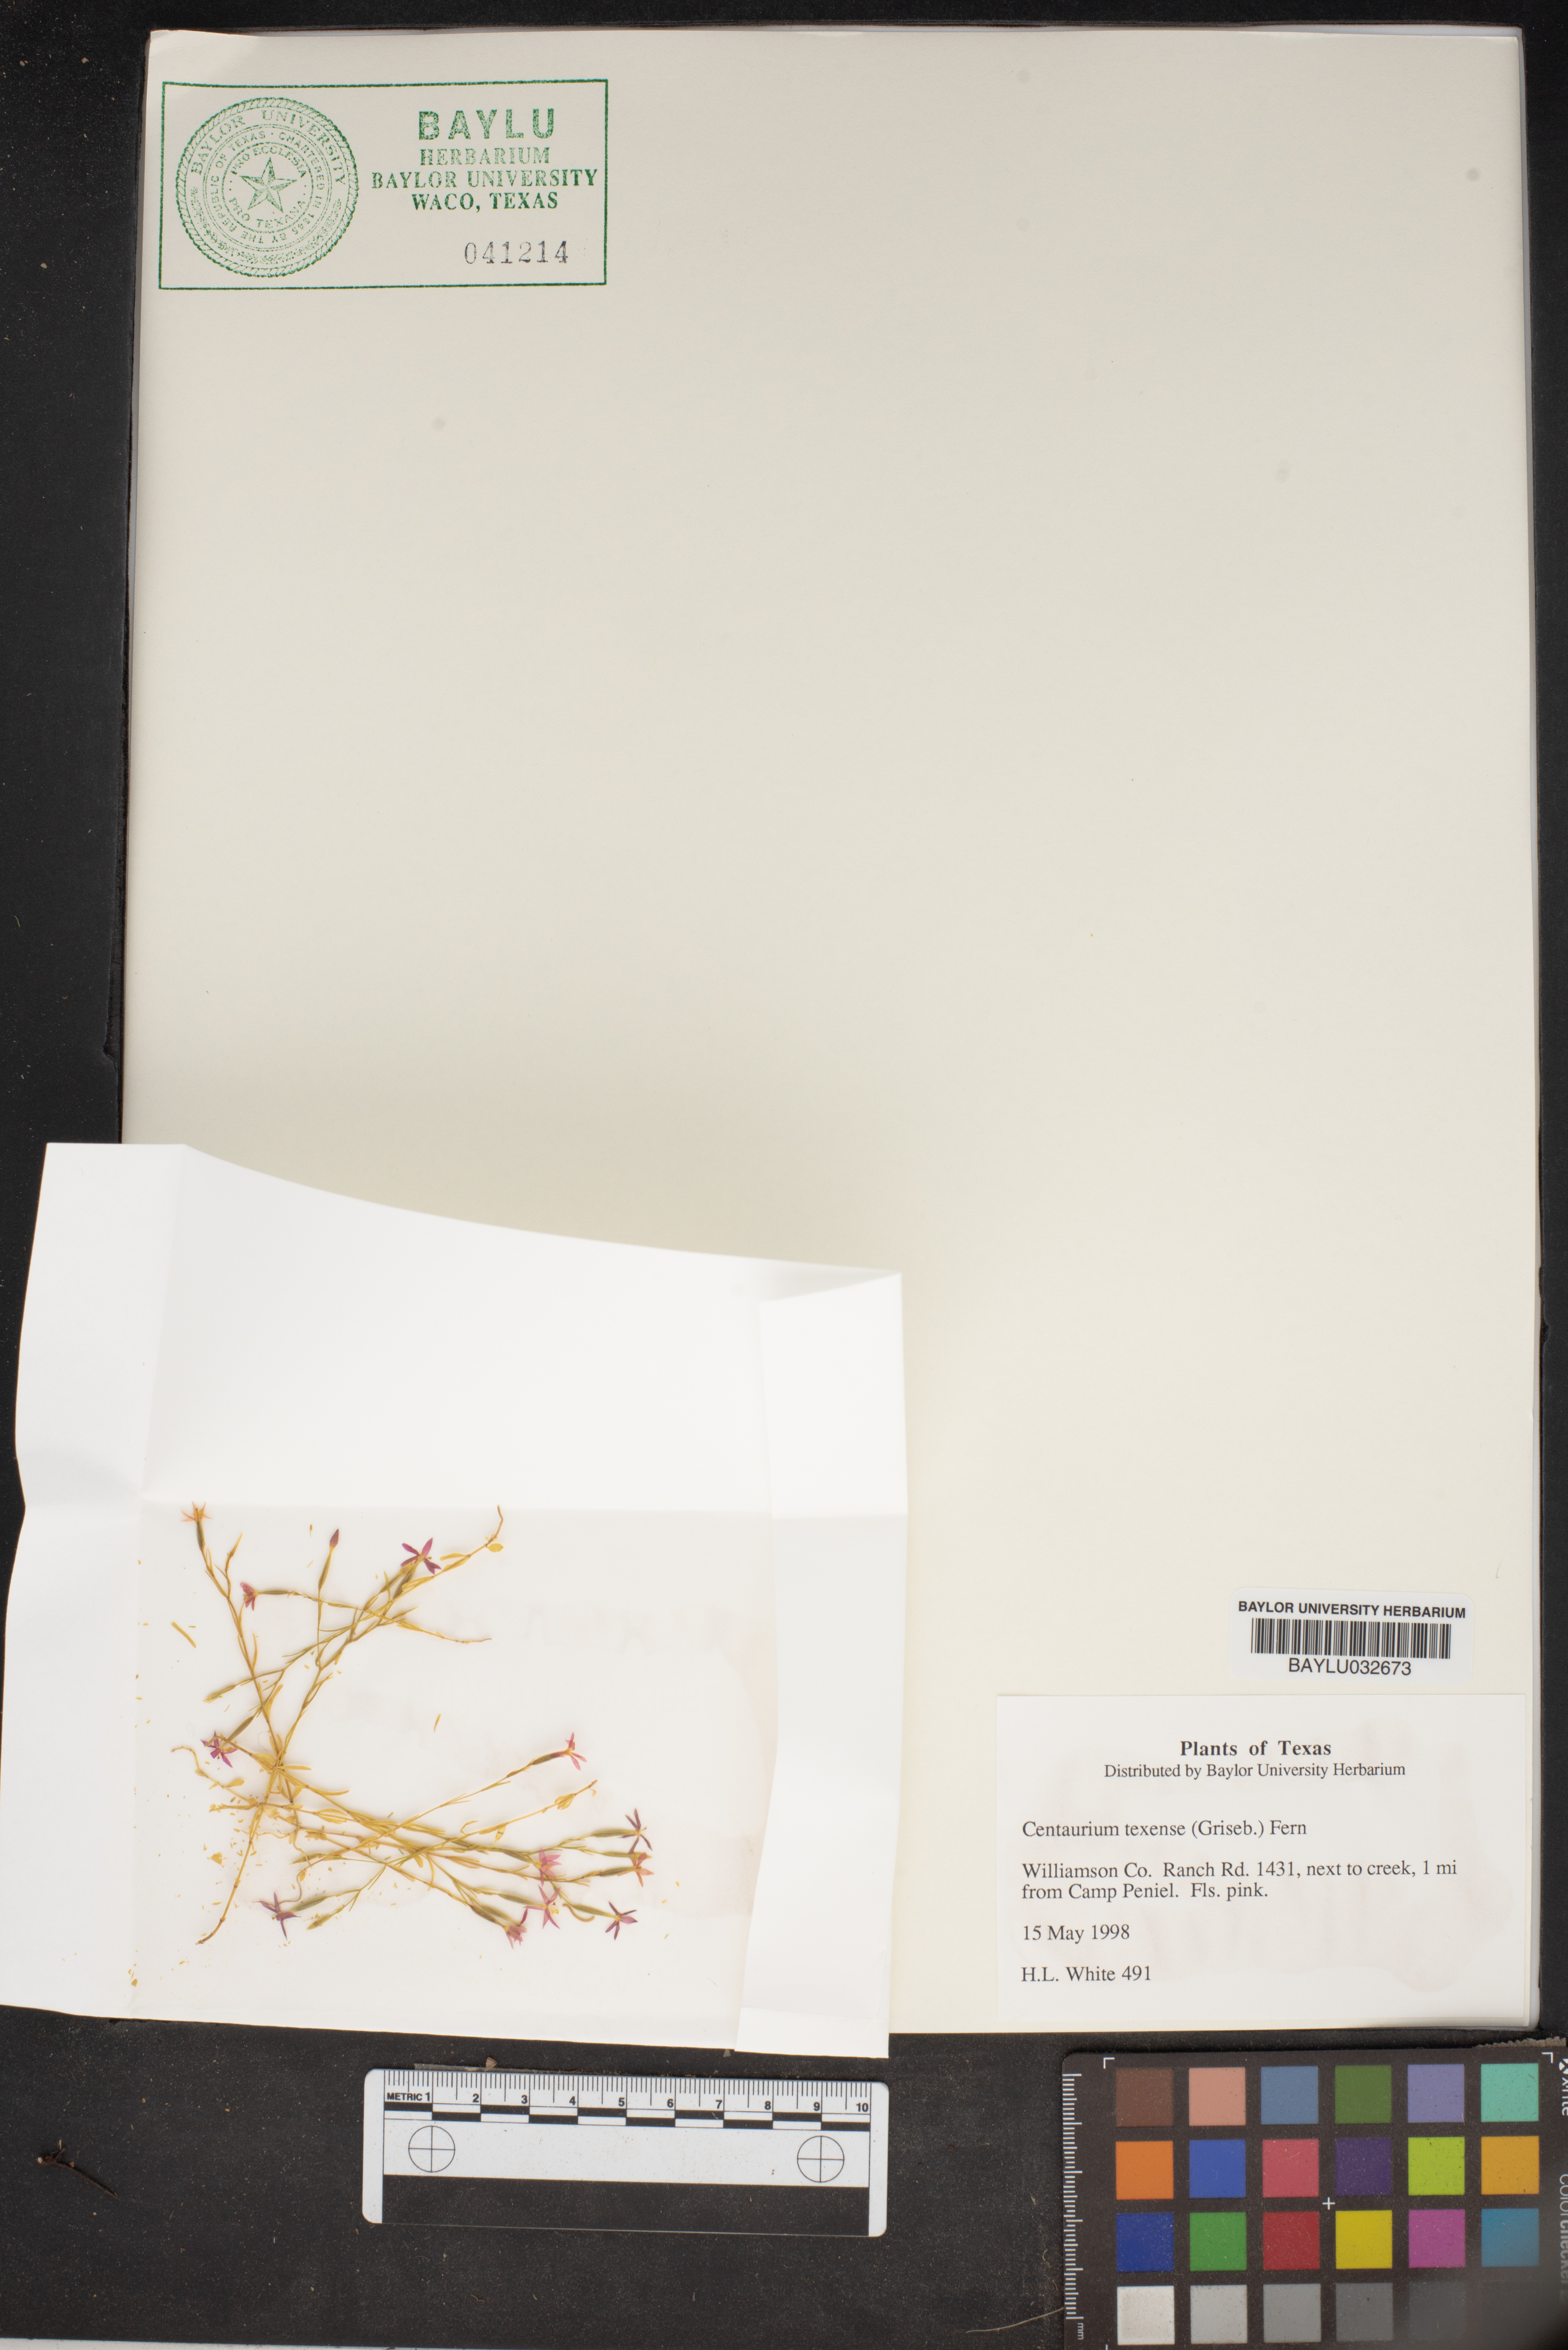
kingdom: Plantae
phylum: Tracheophyta
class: Magnoliopsida
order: Gentianales
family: Gentianaceae
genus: Zeltnera
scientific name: Zeltnera texensis
